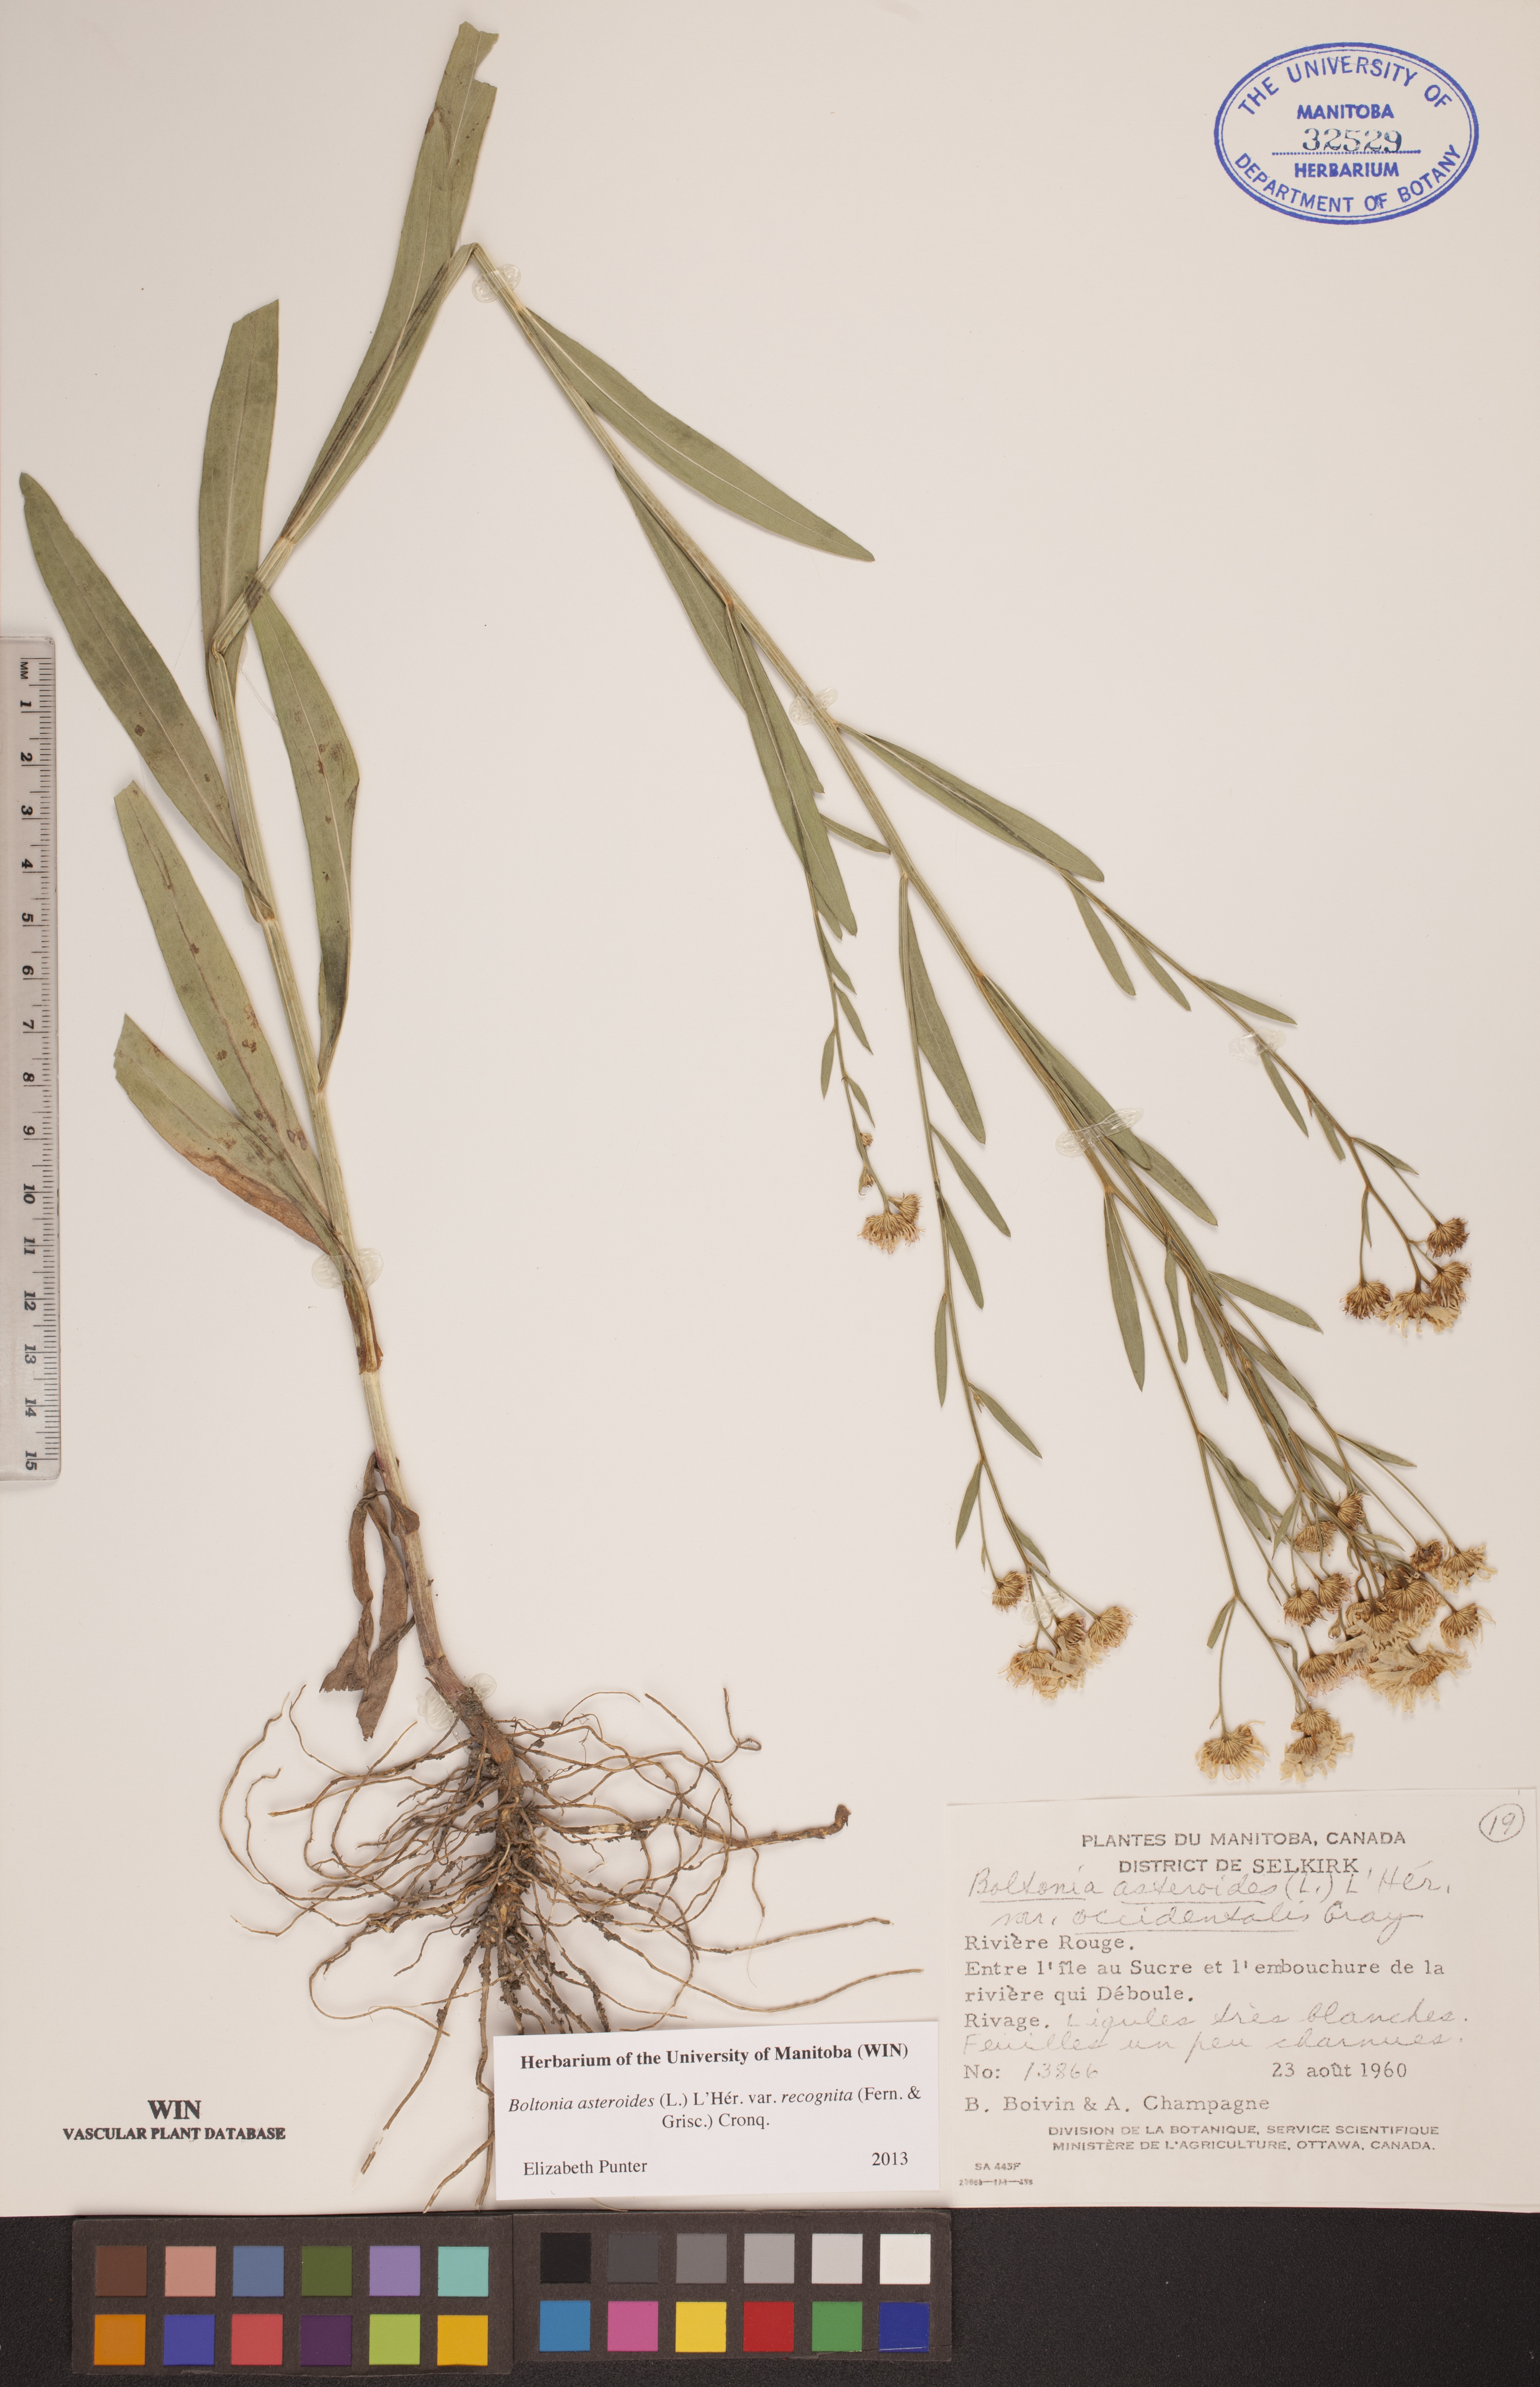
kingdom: Plantae
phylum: Tracheophyta
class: Magnoliopsida
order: Asterales
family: Asteraceae
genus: Boltonia
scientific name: Boltonia asteroides
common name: False chamomile
